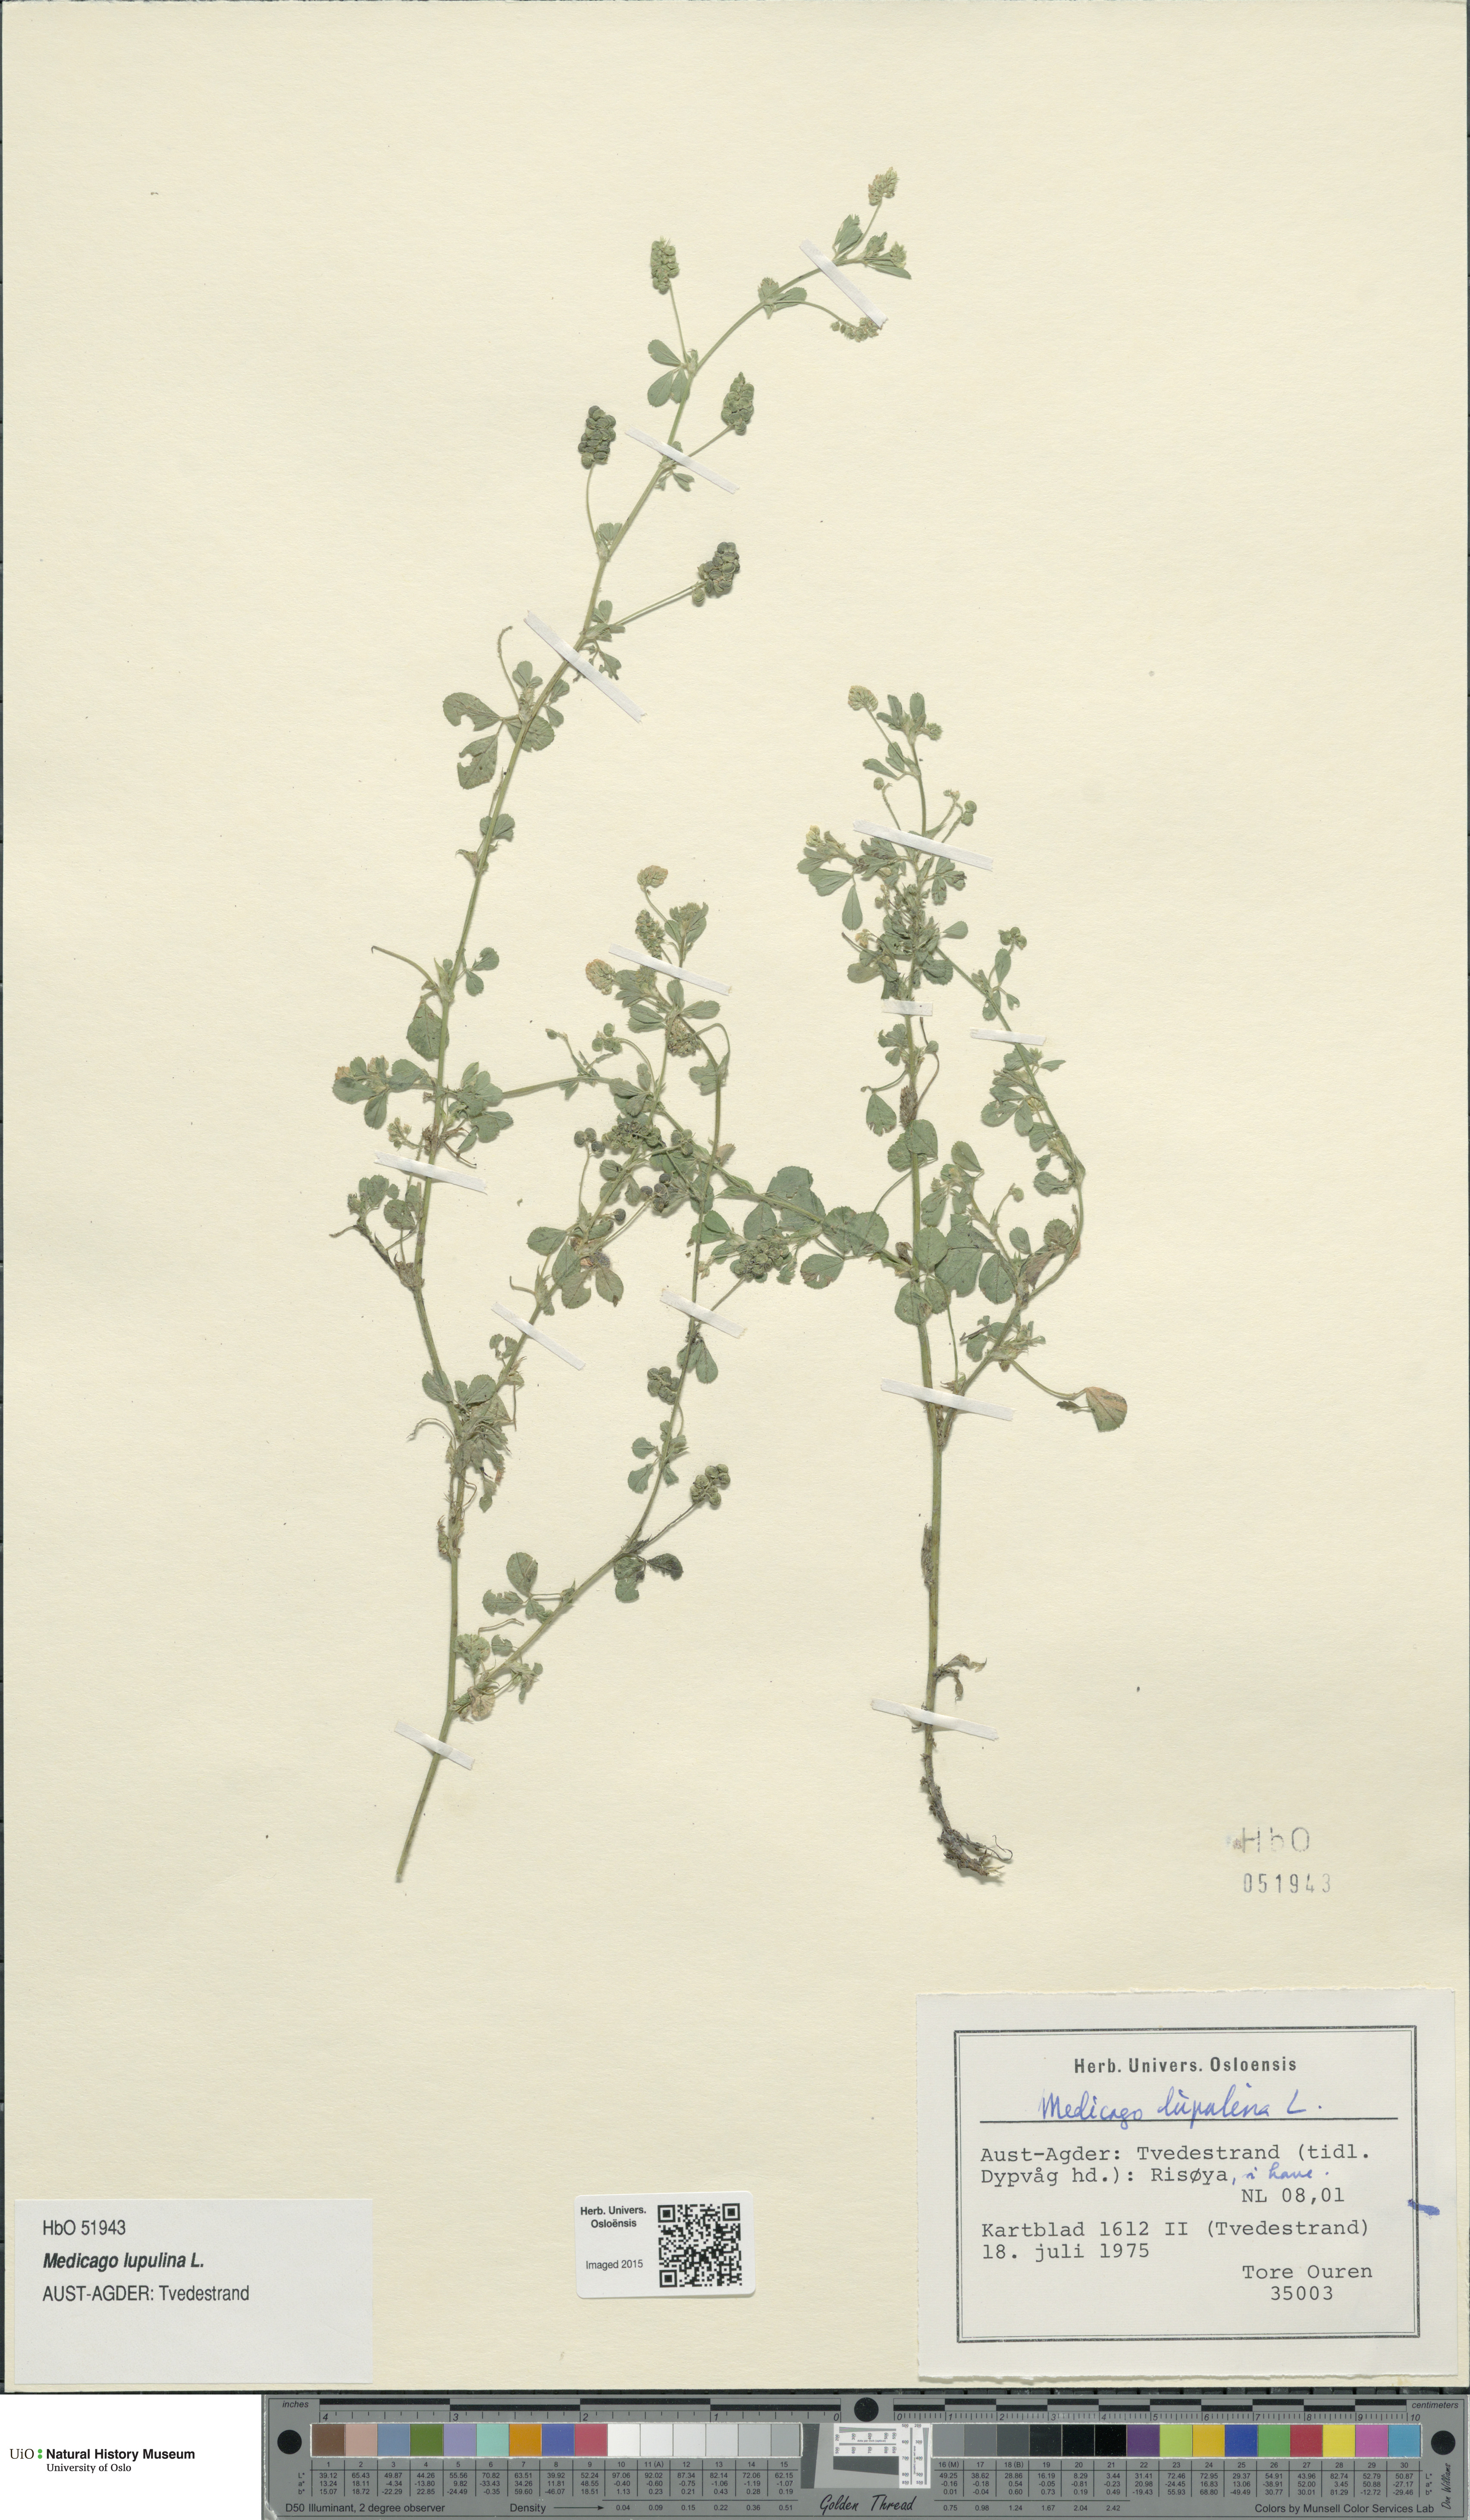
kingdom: Plantae
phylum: Tracheophyta
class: Magnoliopsida
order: Fabales
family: Fabaceae
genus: Medicago
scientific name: Medicago lupulina
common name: Black medick
